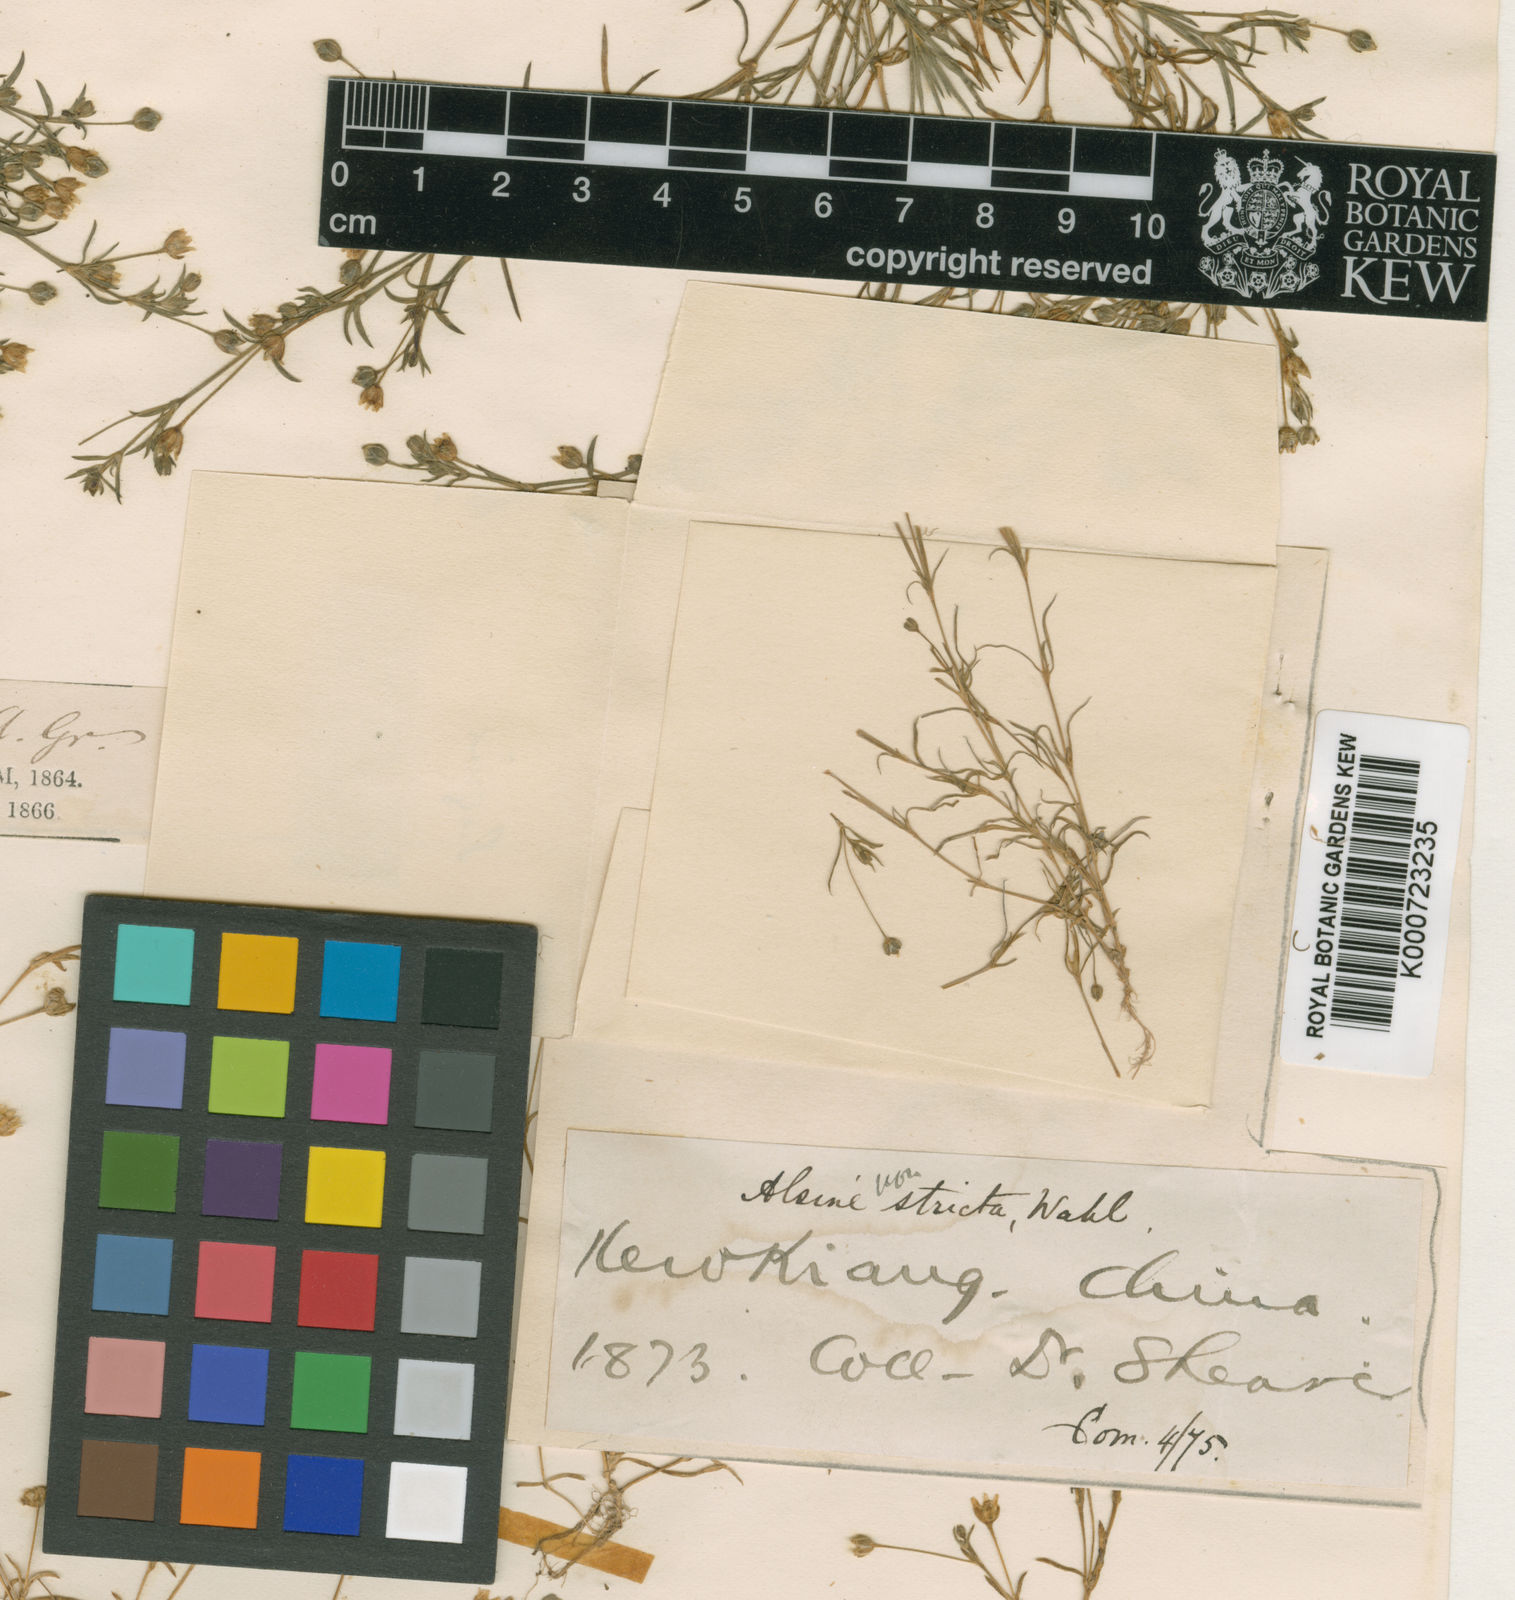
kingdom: Plantae
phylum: Tracheophyta
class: Magnoliopsida
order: Caryophyllales
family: Caryophyllaceae
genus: Sagina
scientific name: Sagina japonica
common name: Japanese pearlwort
